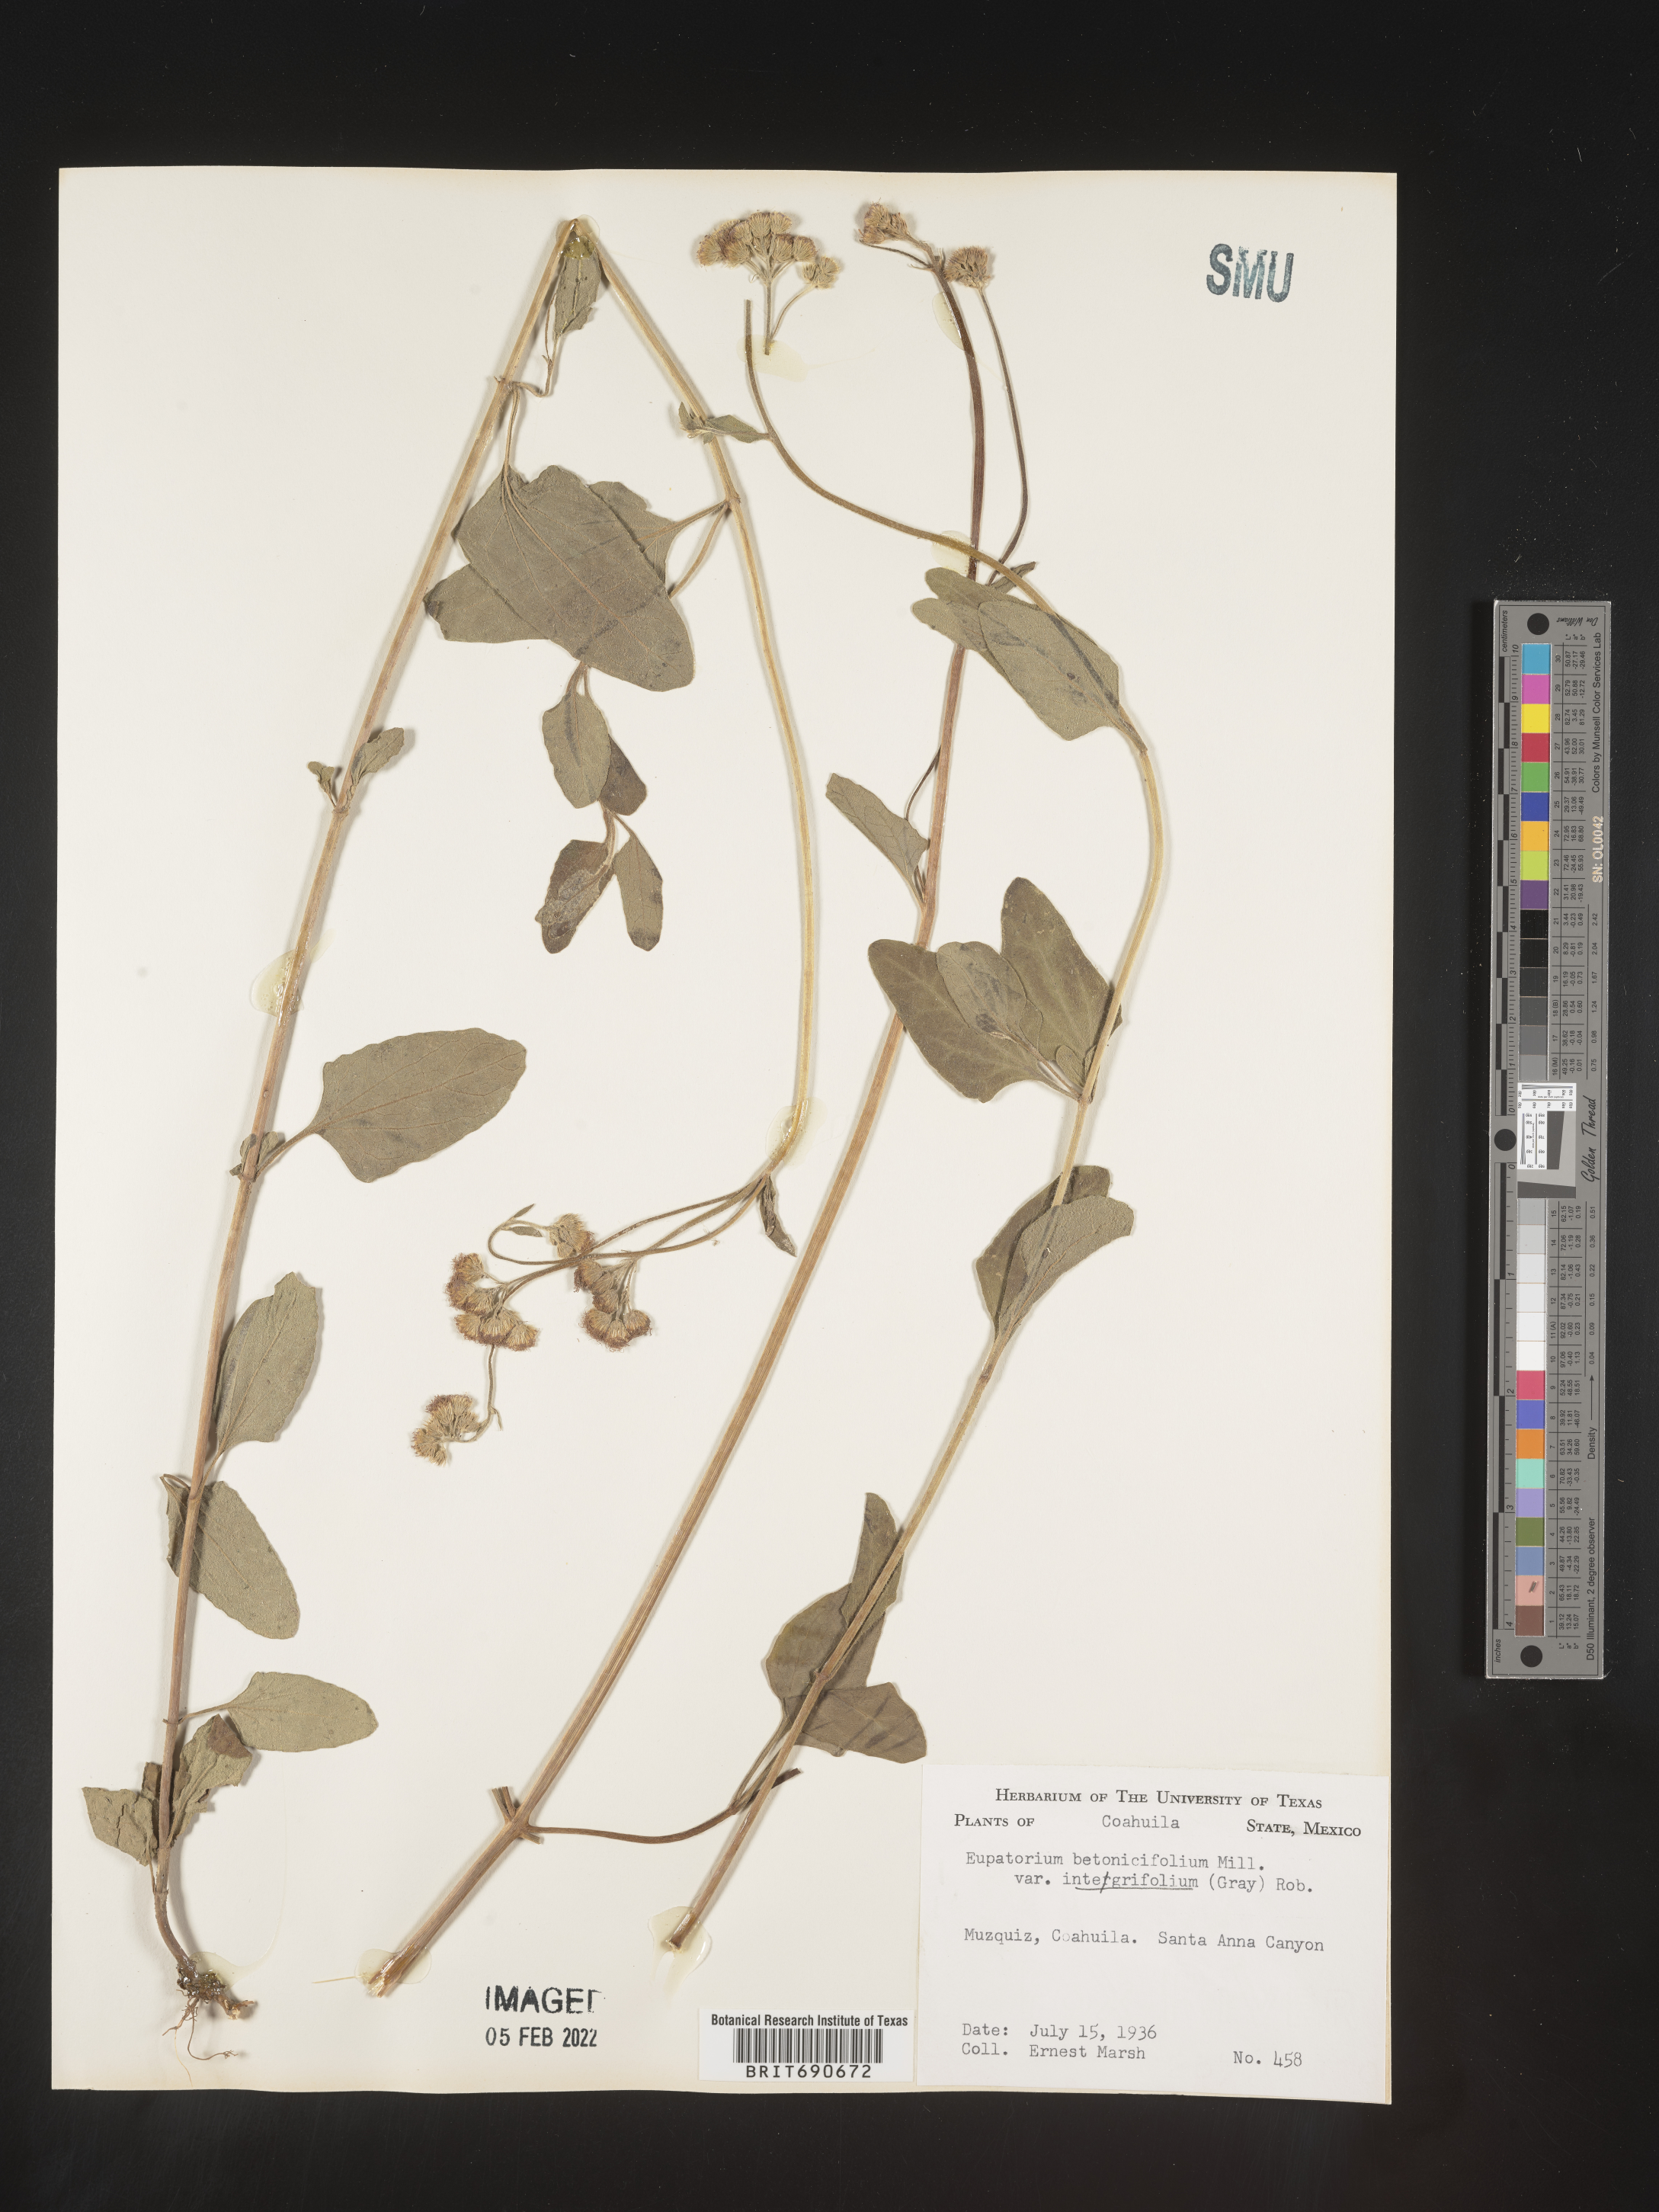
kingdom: Plantae
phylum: Tracheophyta
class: Magnoliopsida
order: Asterales
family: Asteraceae
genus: Conoclinium
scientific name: Conoclinium
